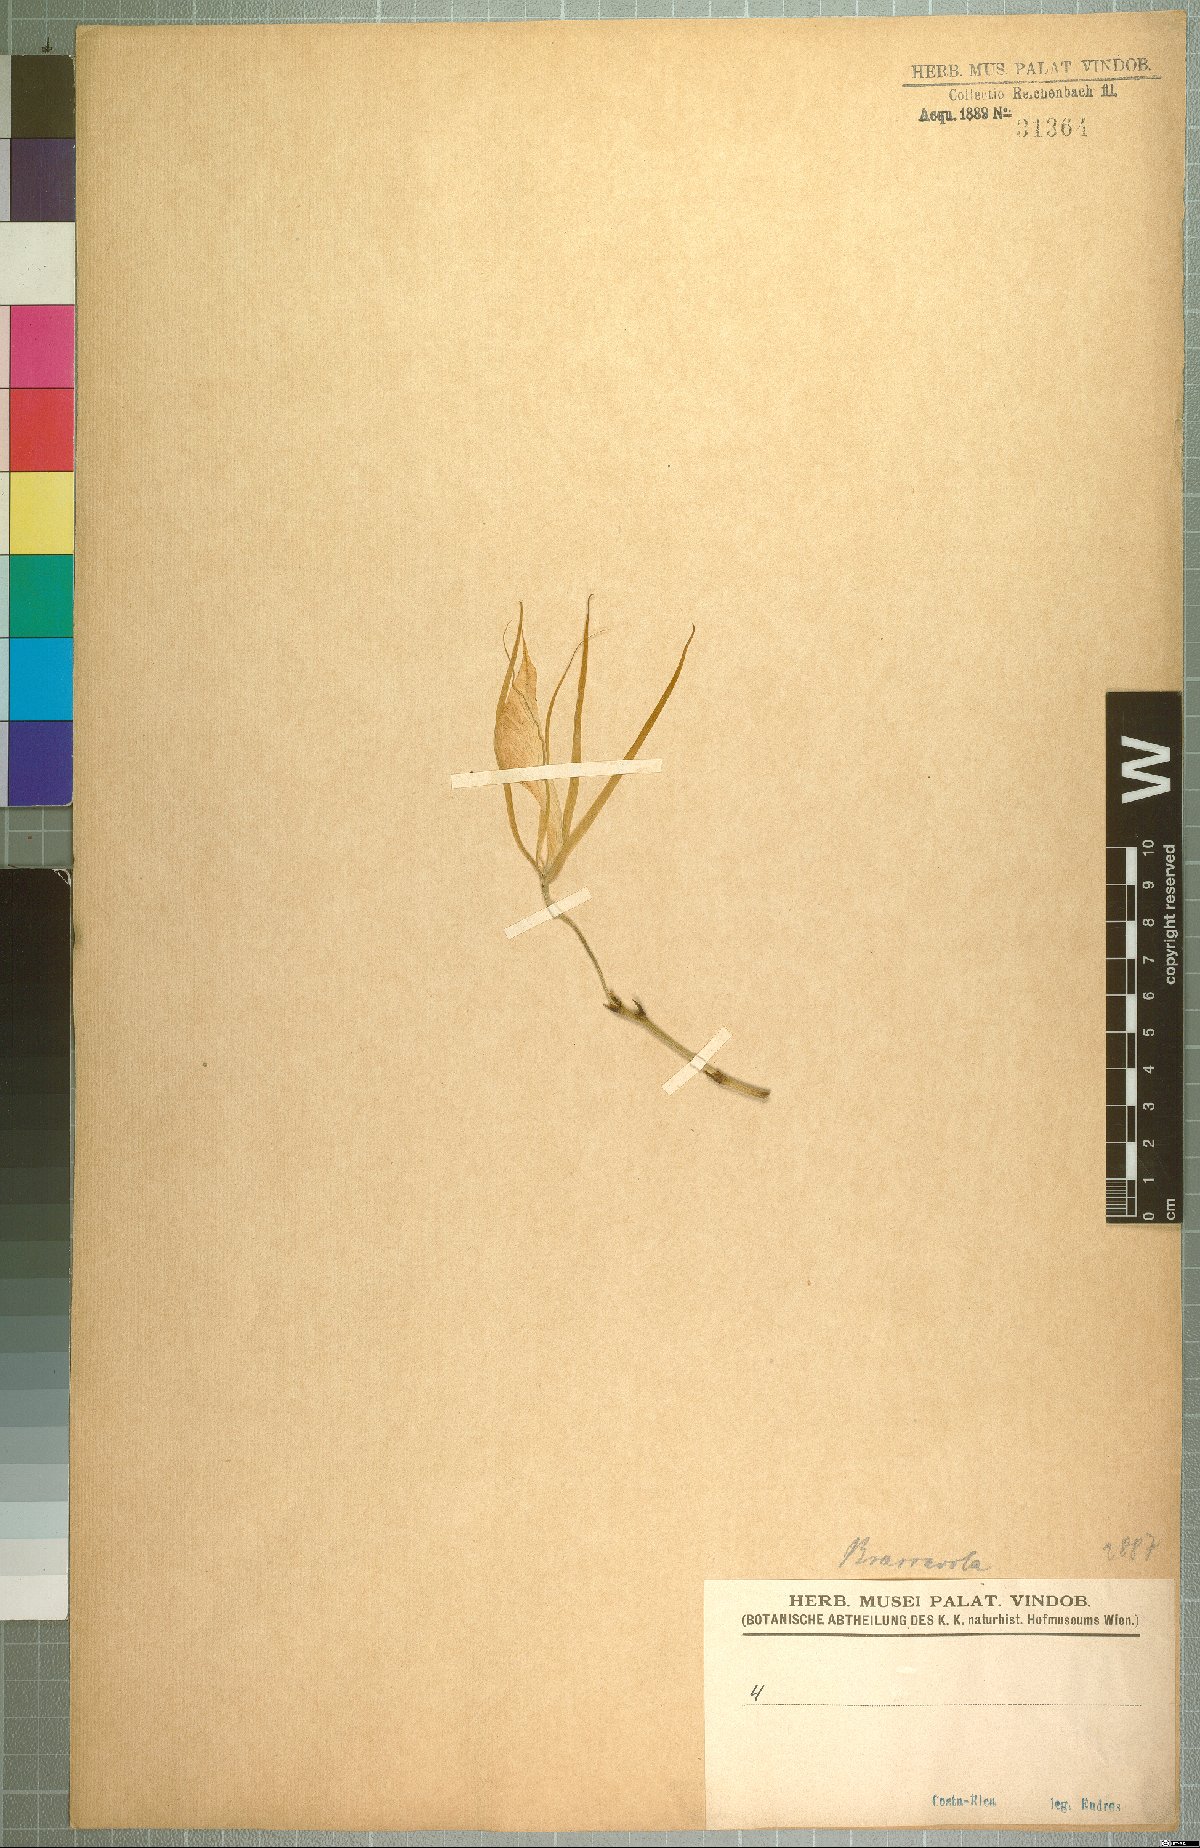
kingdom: Plantae
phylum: Tracheophyta
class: Liliopsida
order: Asparagales
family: Orchidaceae
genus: Brassavola
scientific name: Brassavola nodosa
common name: Lady of the night
